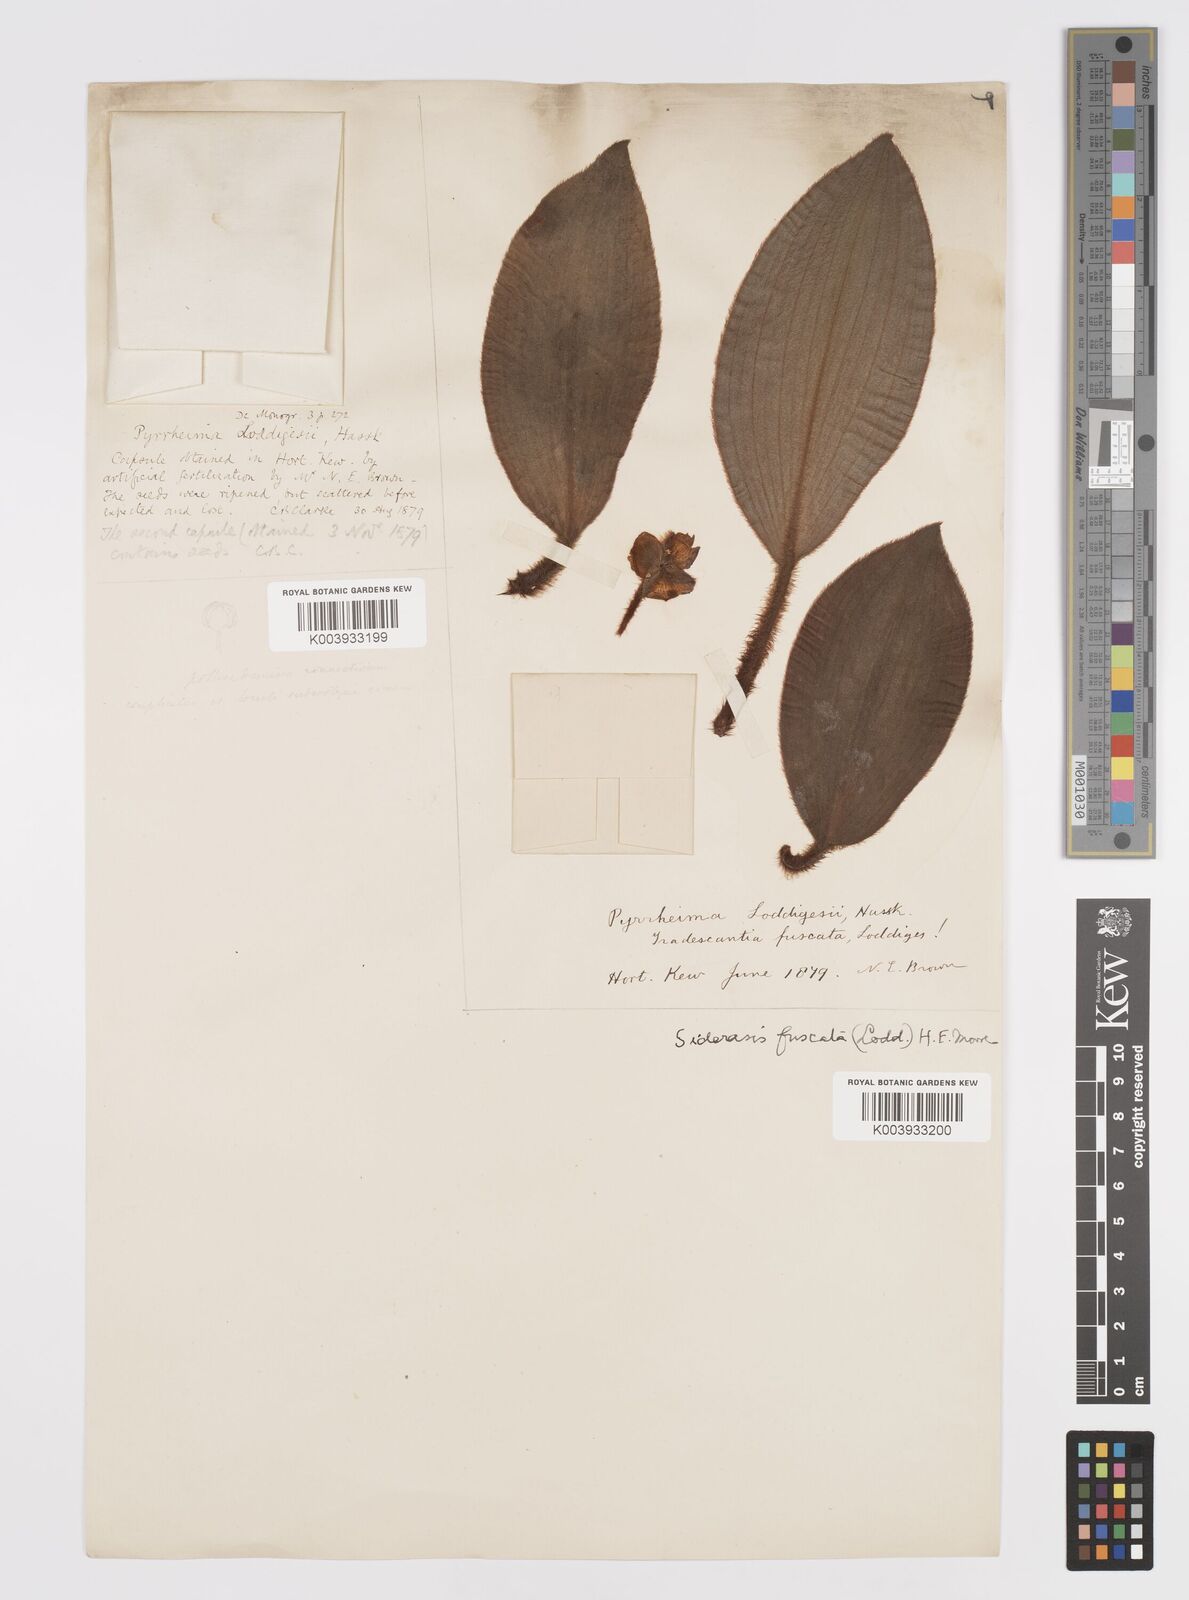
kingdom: Plantae
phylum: Tracheophyta
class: Liliopsida
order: Commelinales
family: Commelinaceae
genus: Siderasis
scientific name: Siderasis fuscata
